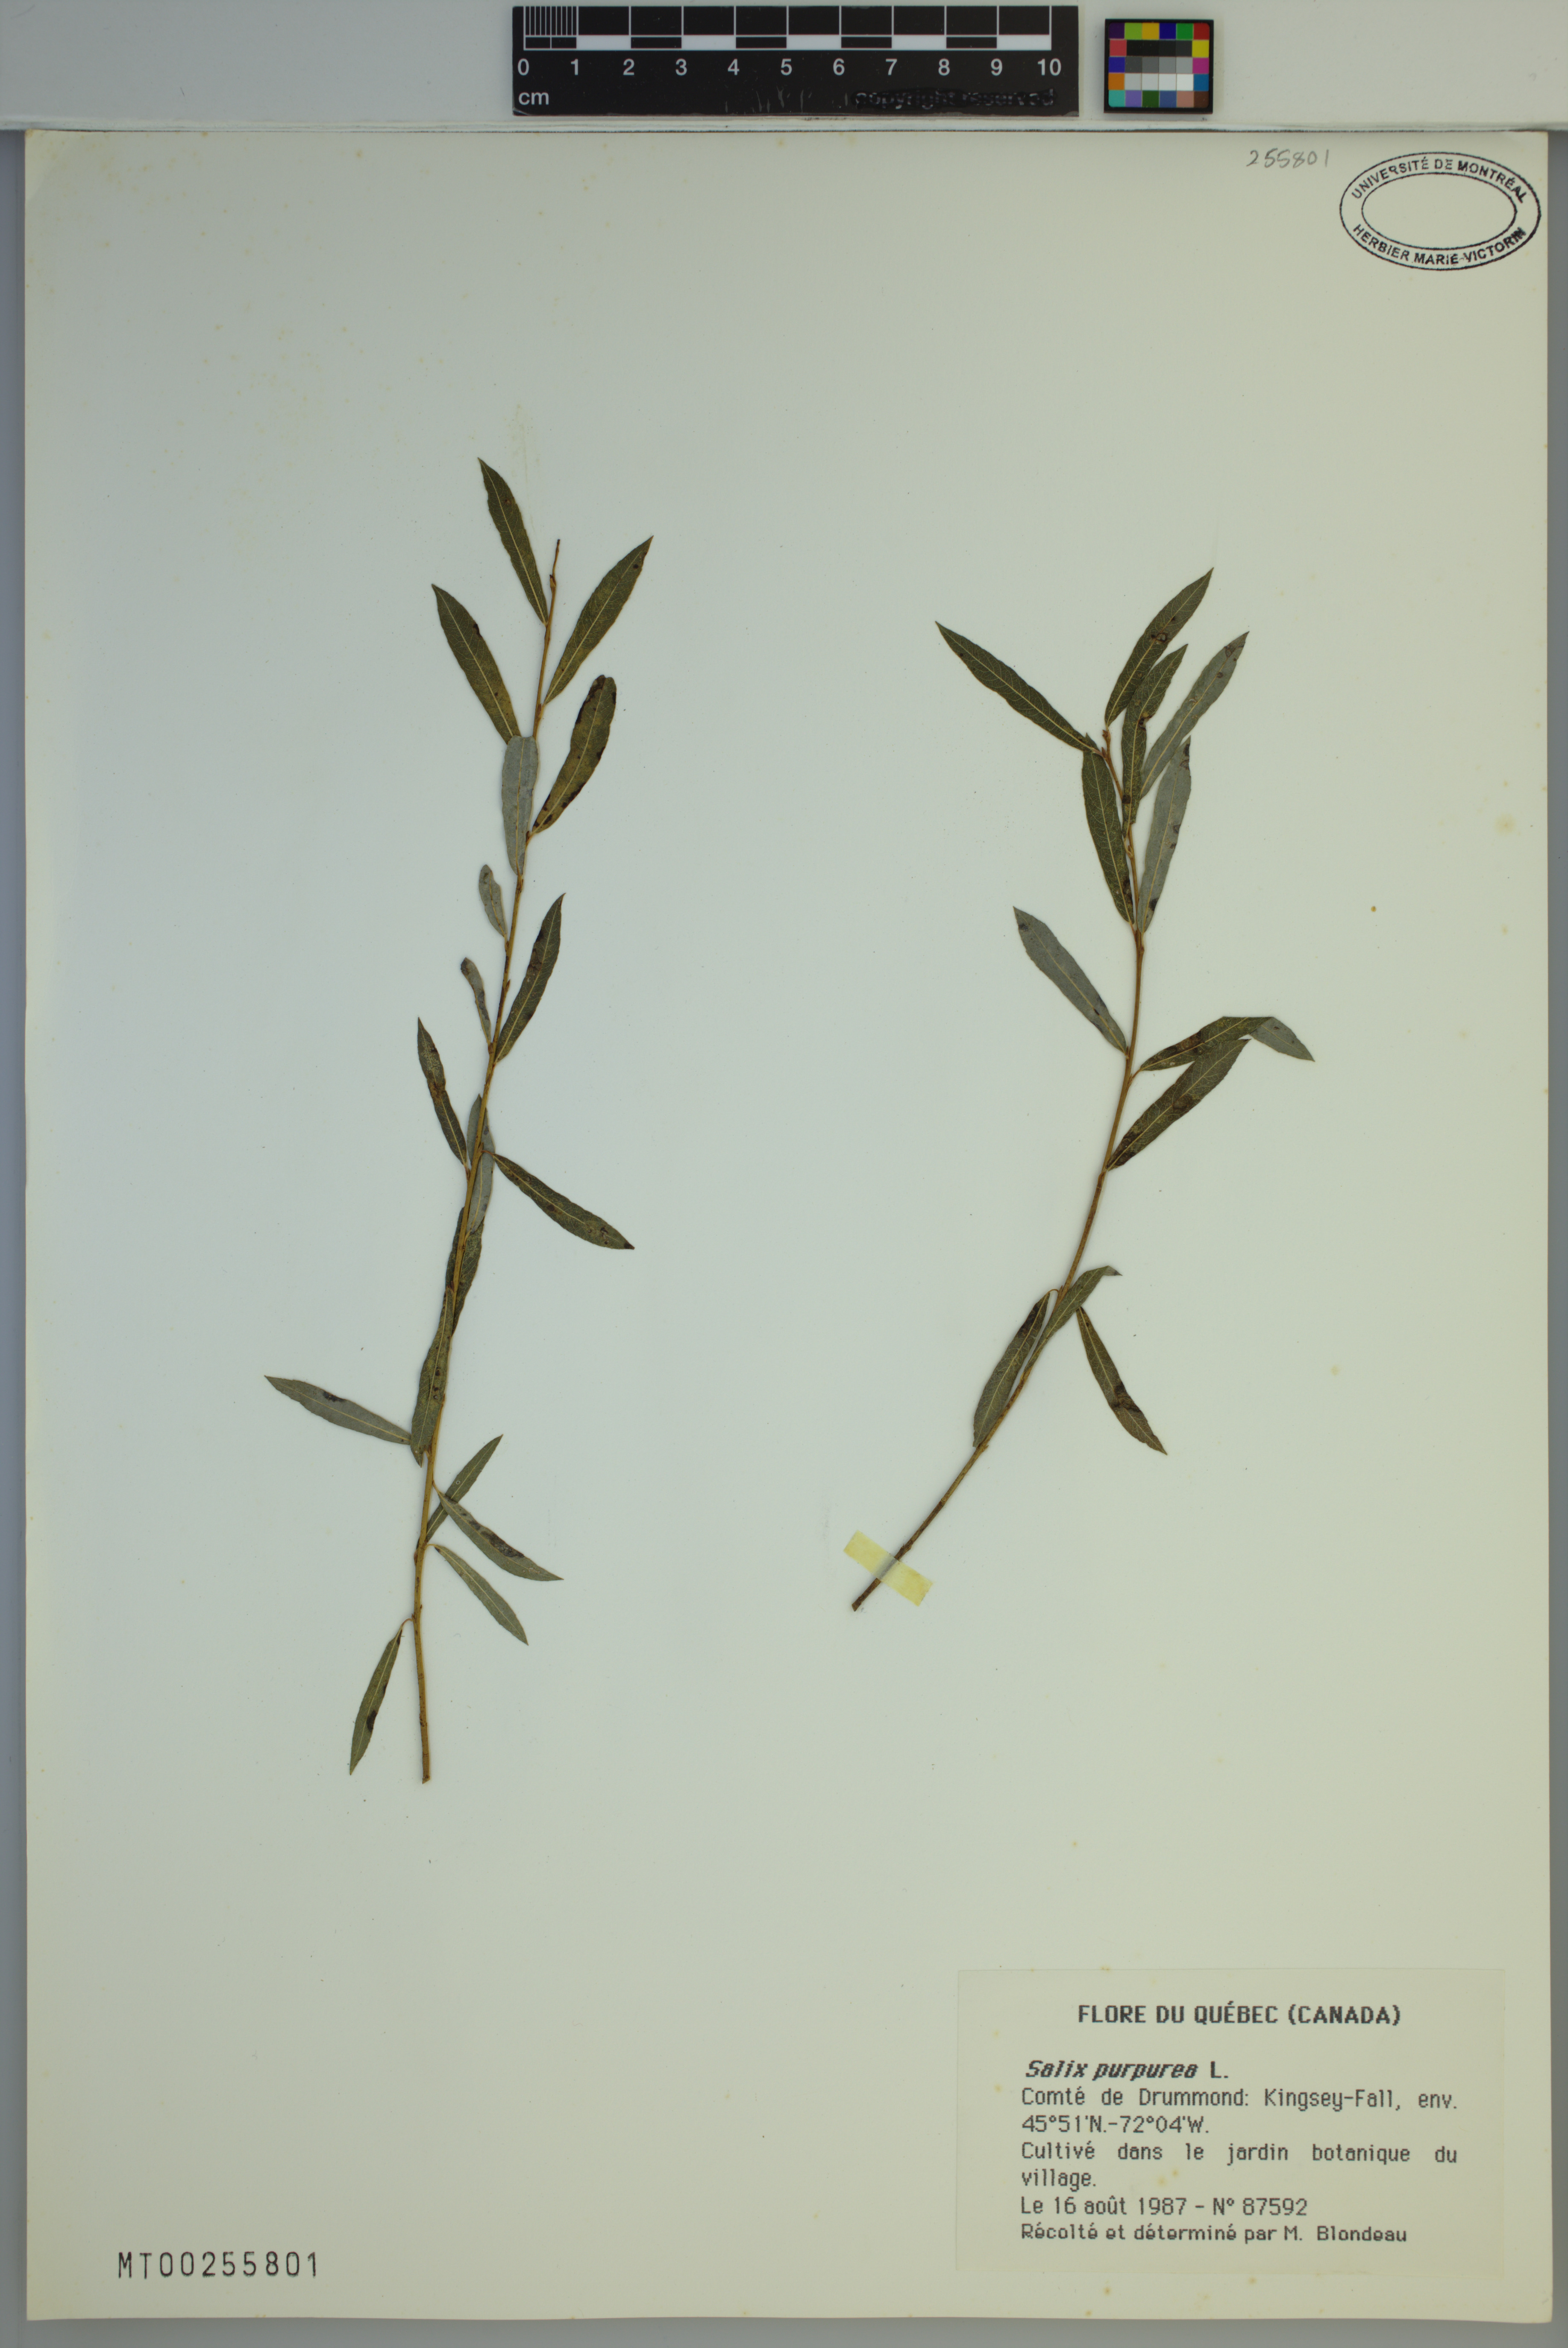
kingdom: Plantae
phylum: Tracheophyta
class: Magnoliopsida
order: Malpighiales
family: Salicaceae
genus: Salix
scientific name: Salix purpurea
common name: Purple willow
